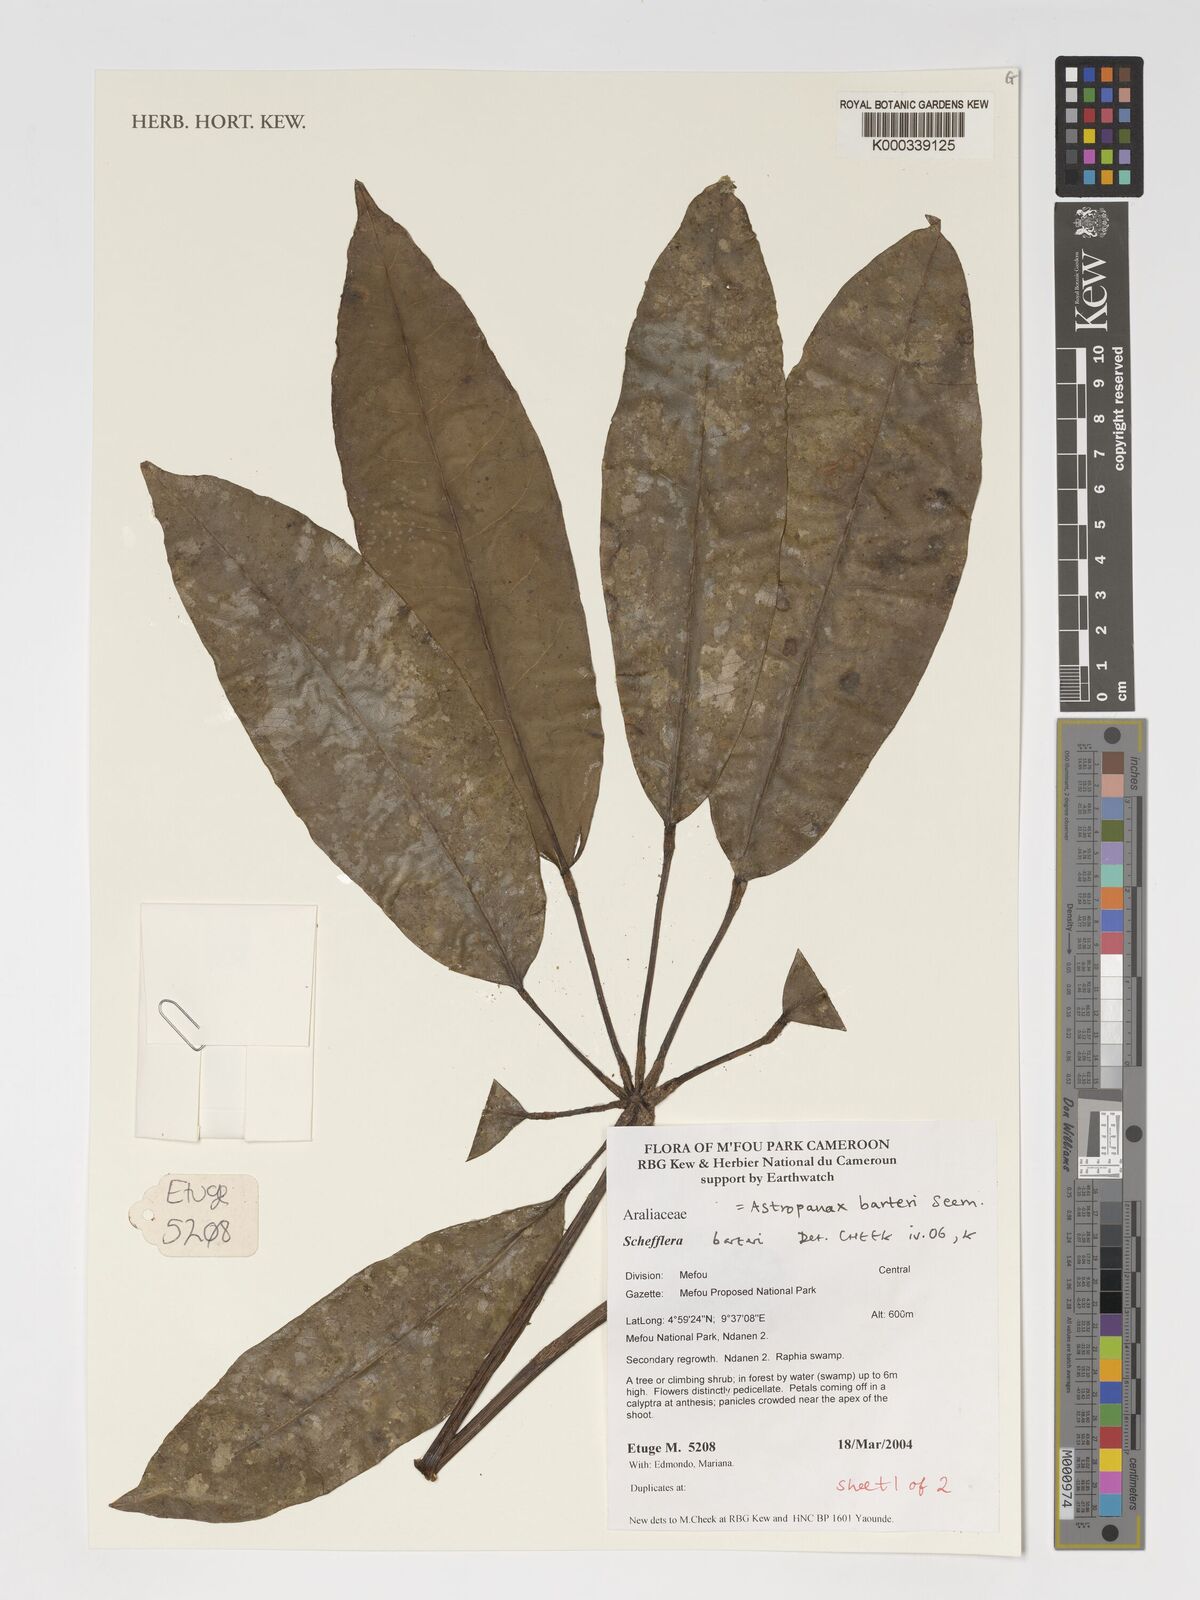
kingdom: Plantae
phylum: Tracheophyta
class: Magnoliopsida
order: Apiales
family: Araliaceae
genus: Astropanax
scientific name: Astropanax barteri
